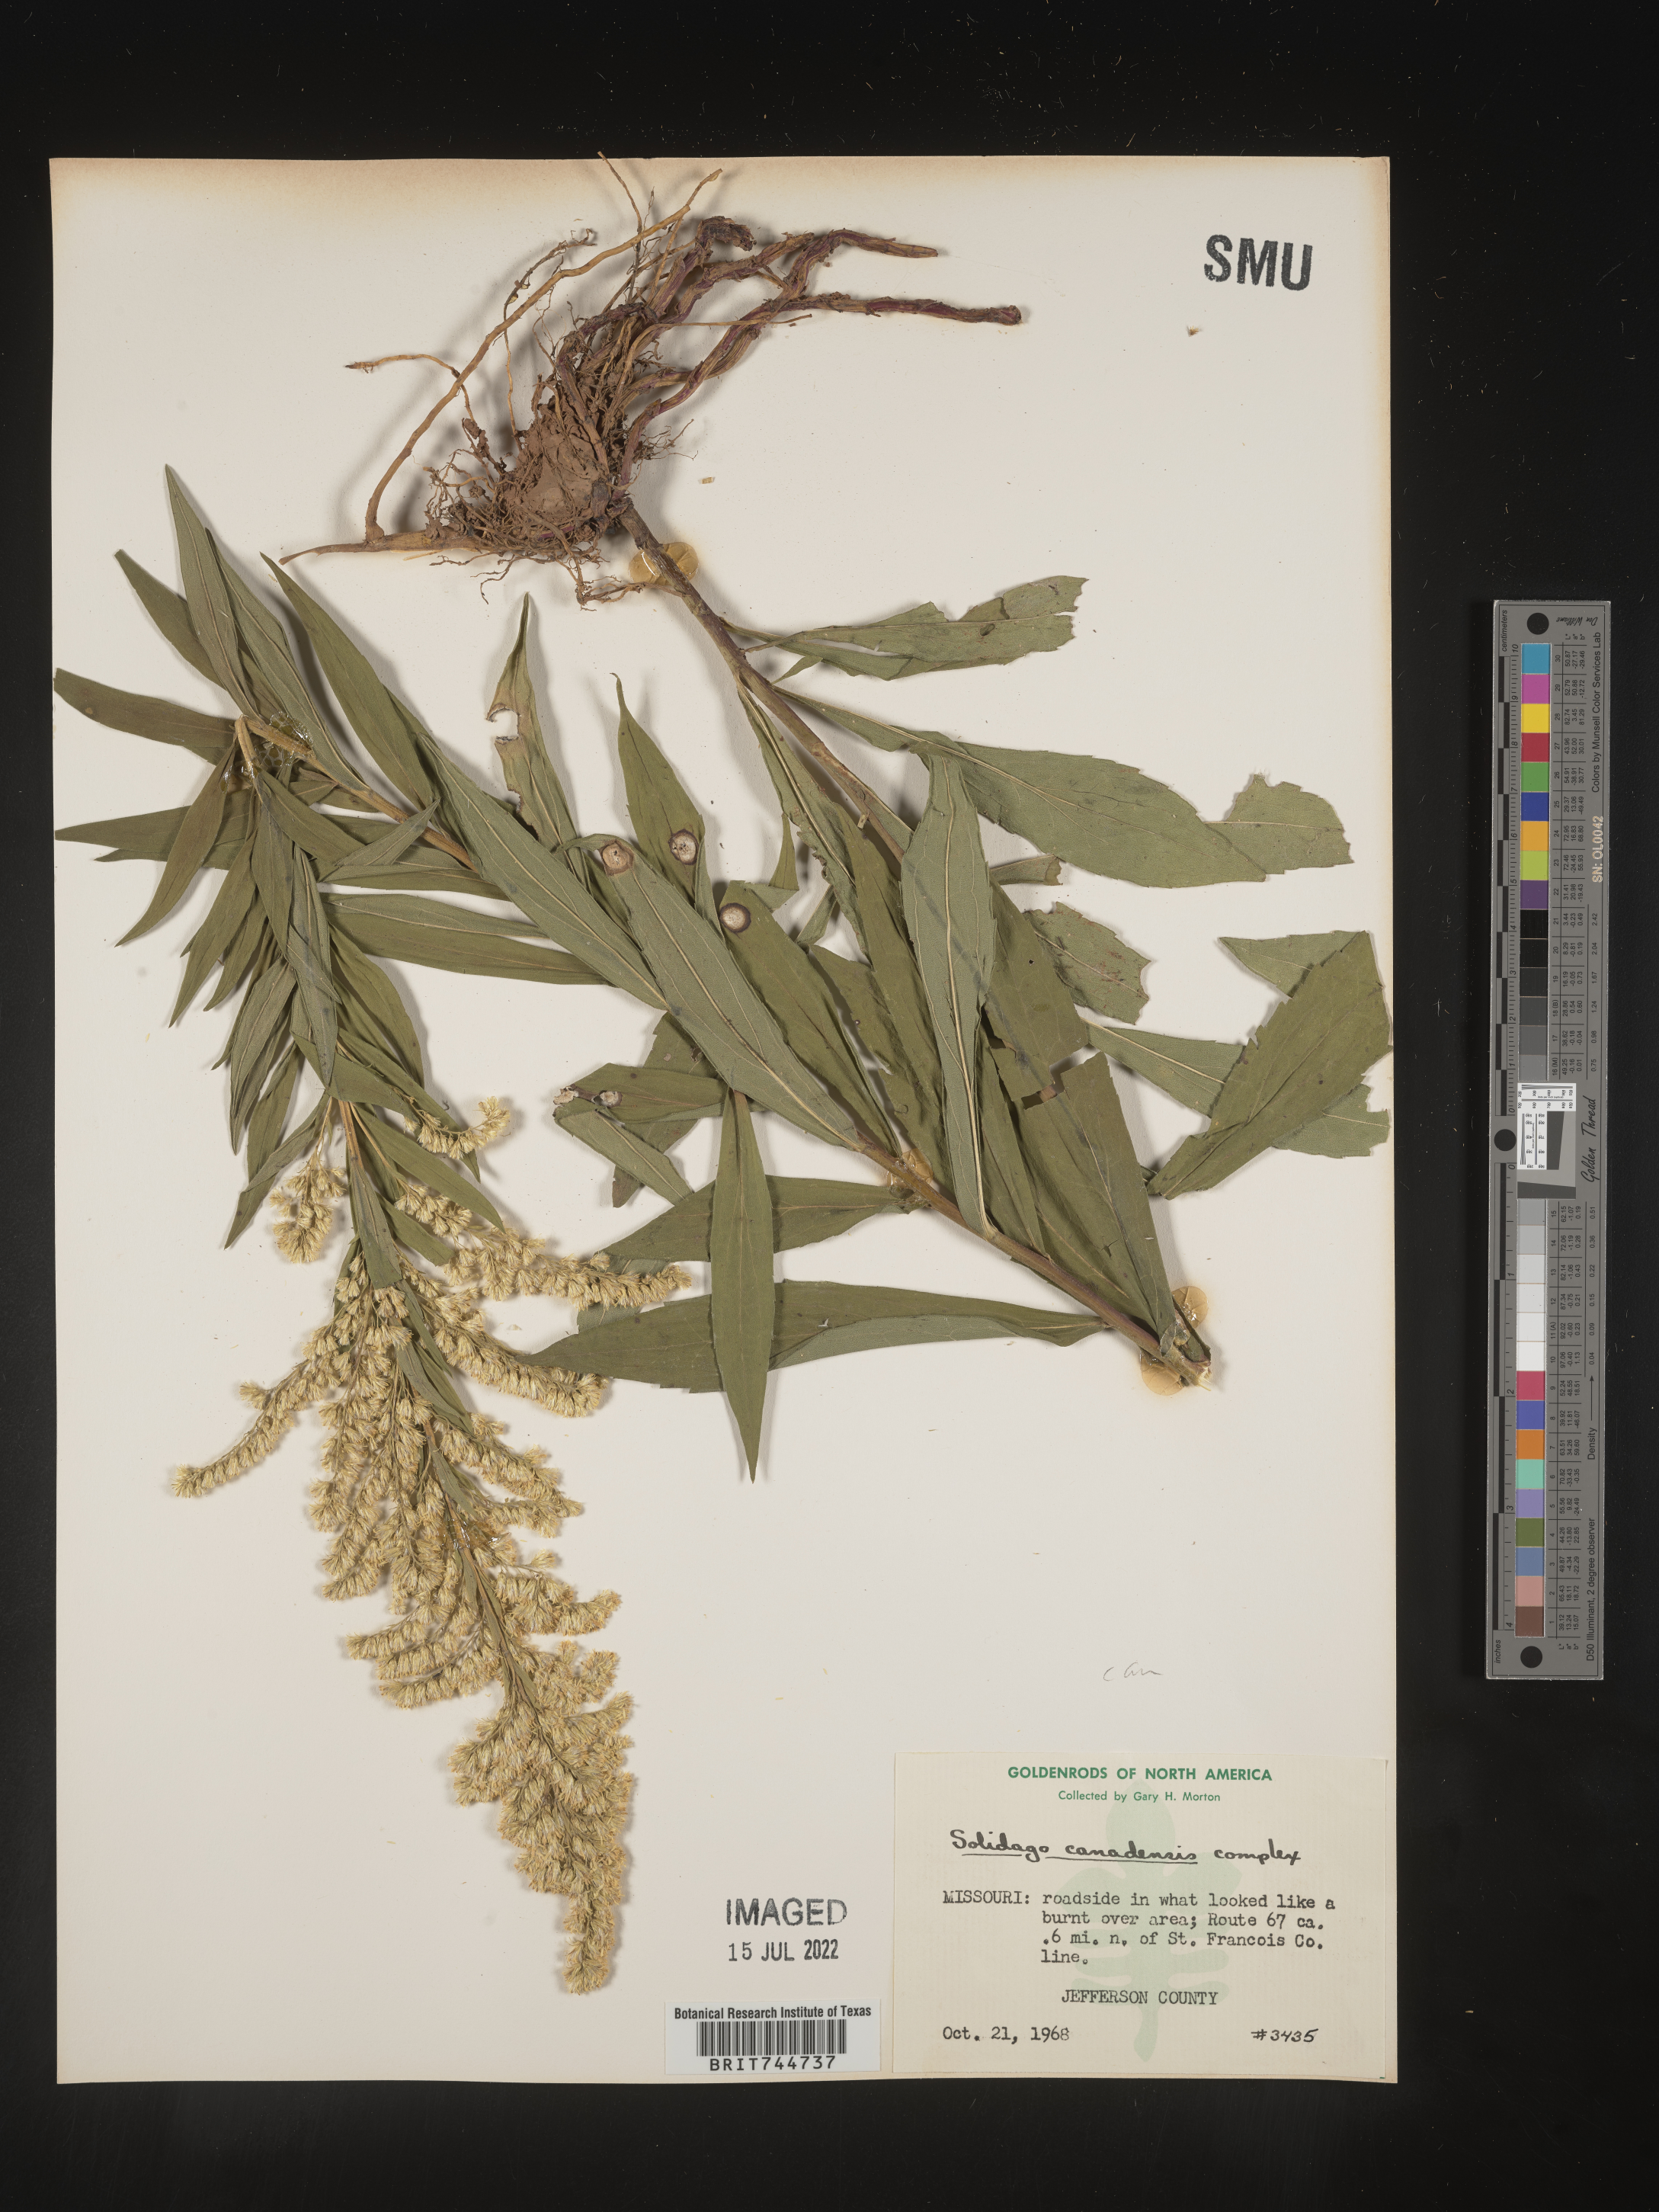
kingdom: Plantae
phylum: Tracheophyta
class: Magnoliopsida
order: Asterales
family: Asteraceae
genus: Solidago
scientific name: Solidago canadensis
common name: Canada goldenrod
